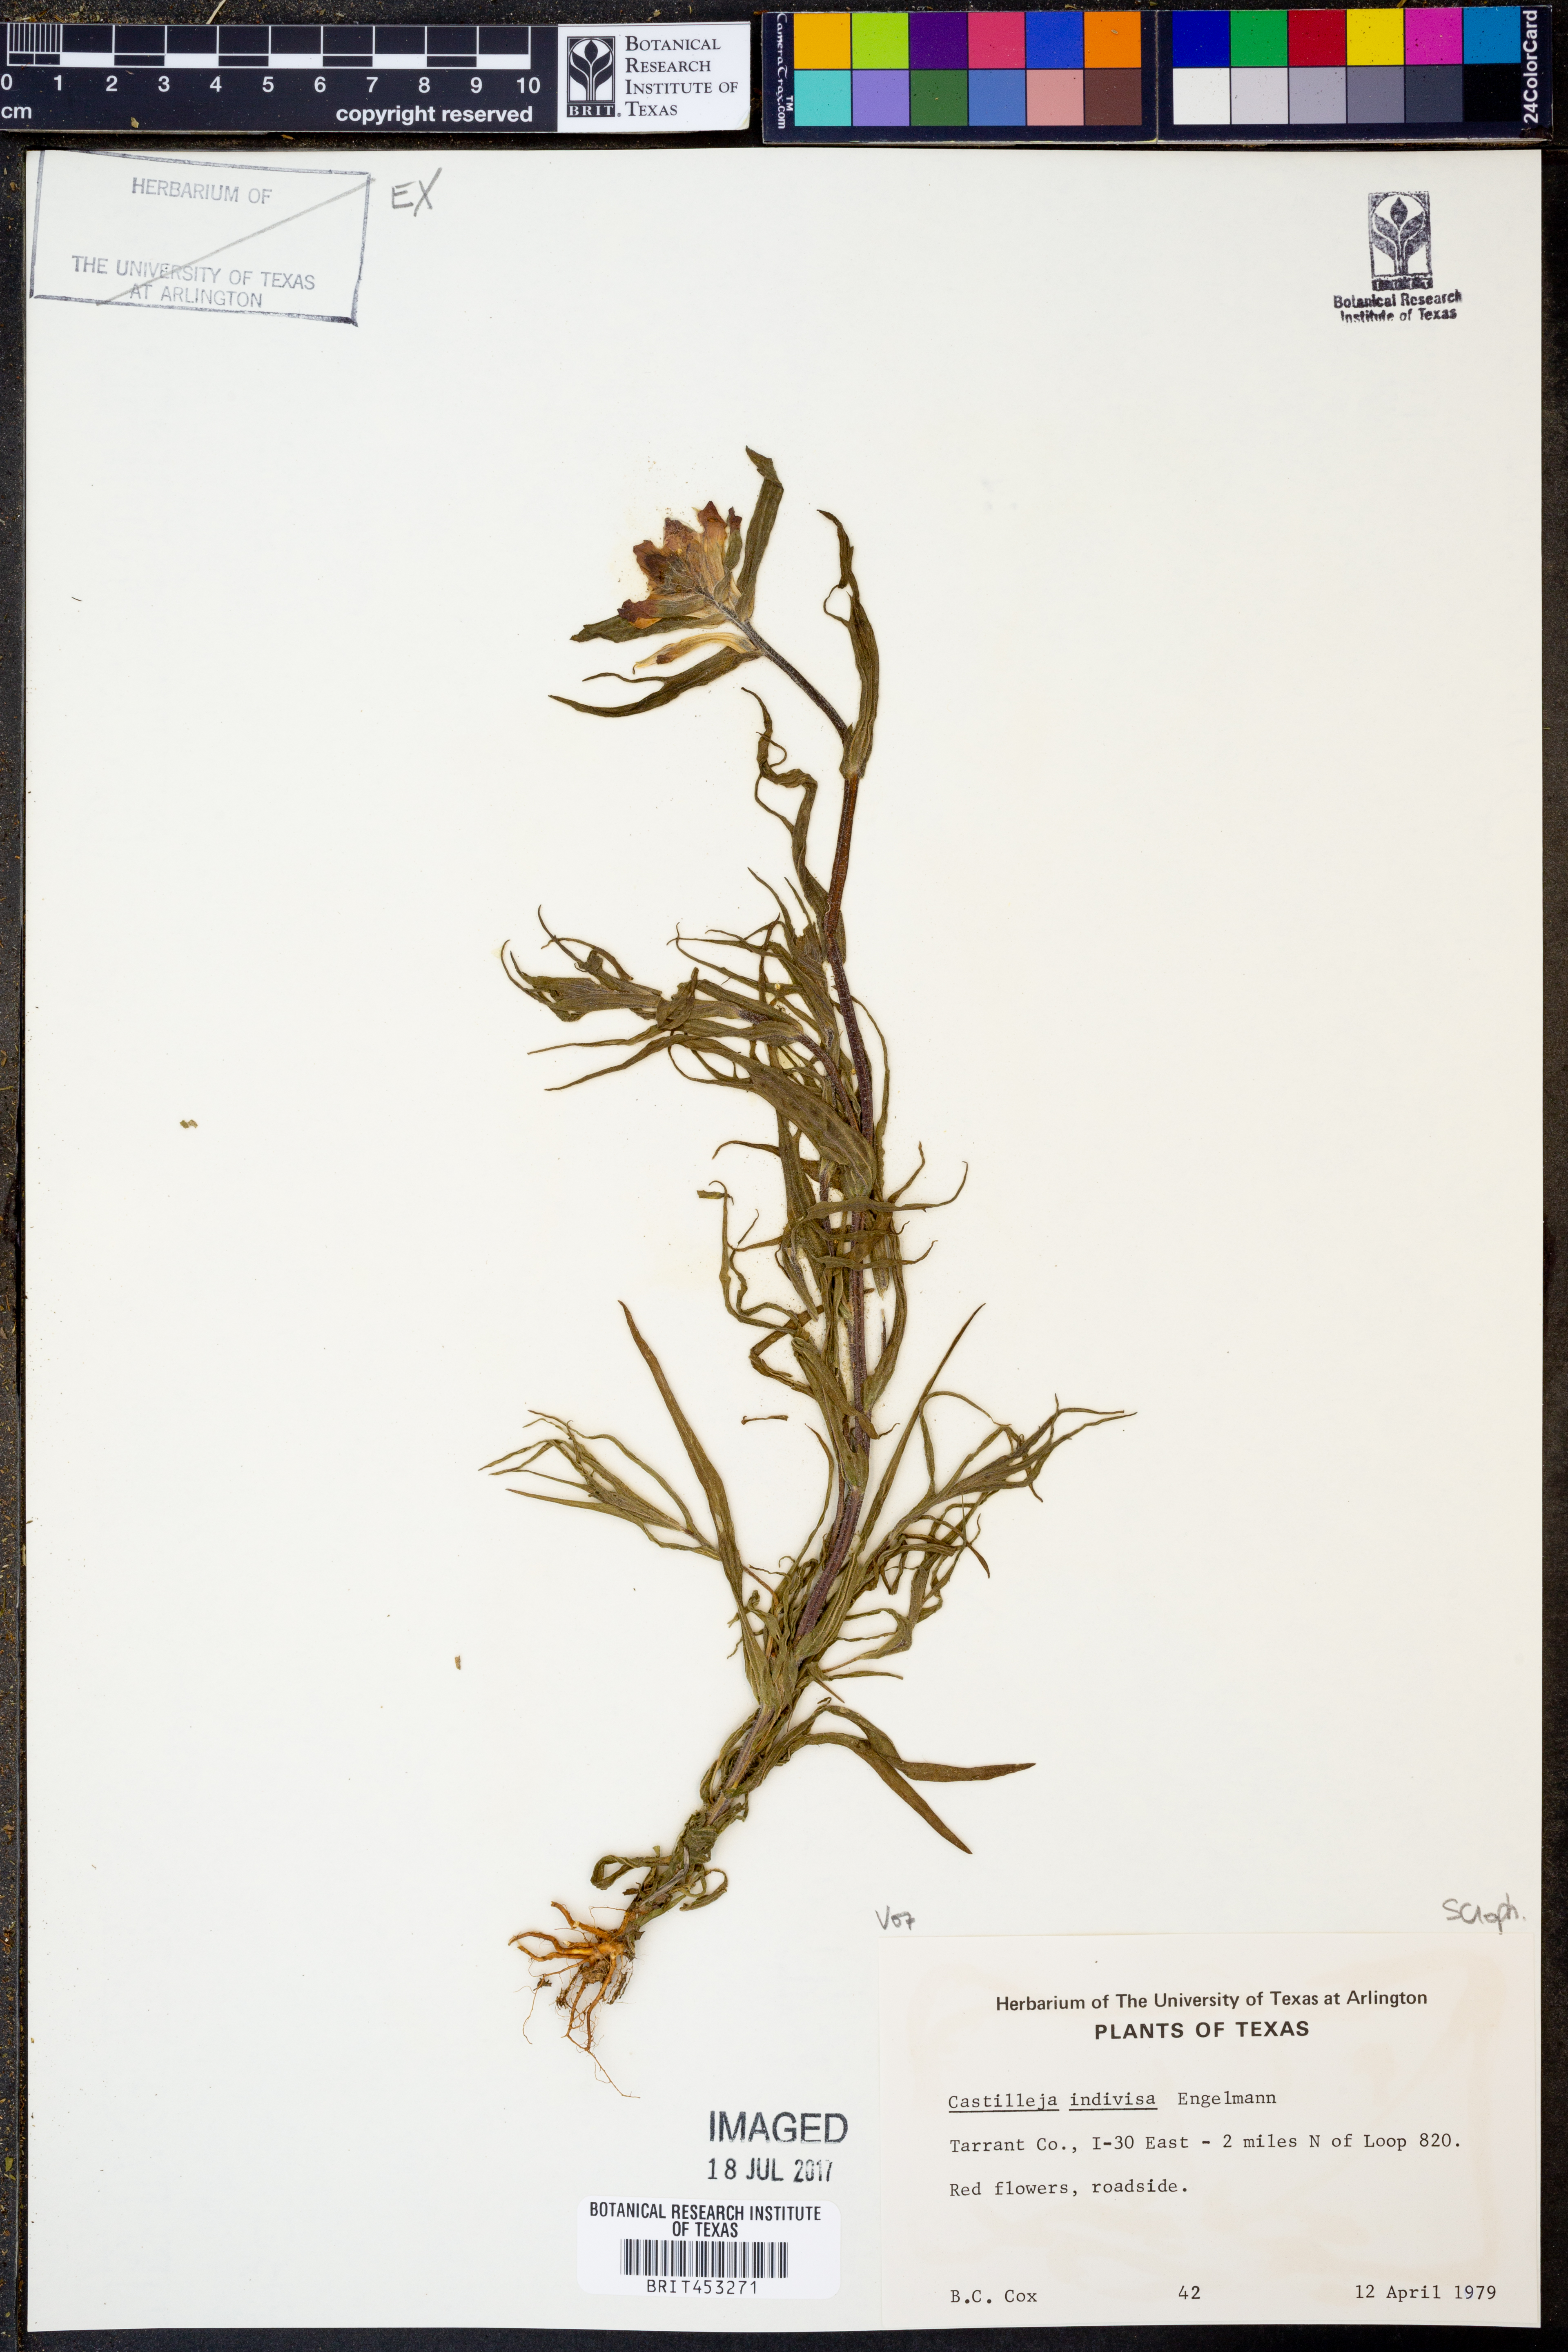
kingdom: Plantae
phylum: Tracheophyta
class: Magnoliopsida
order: Lamiales
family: Orobanchaceae
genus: Castilleja
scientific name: Castilleja indivisa
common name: Texas paintbrush
